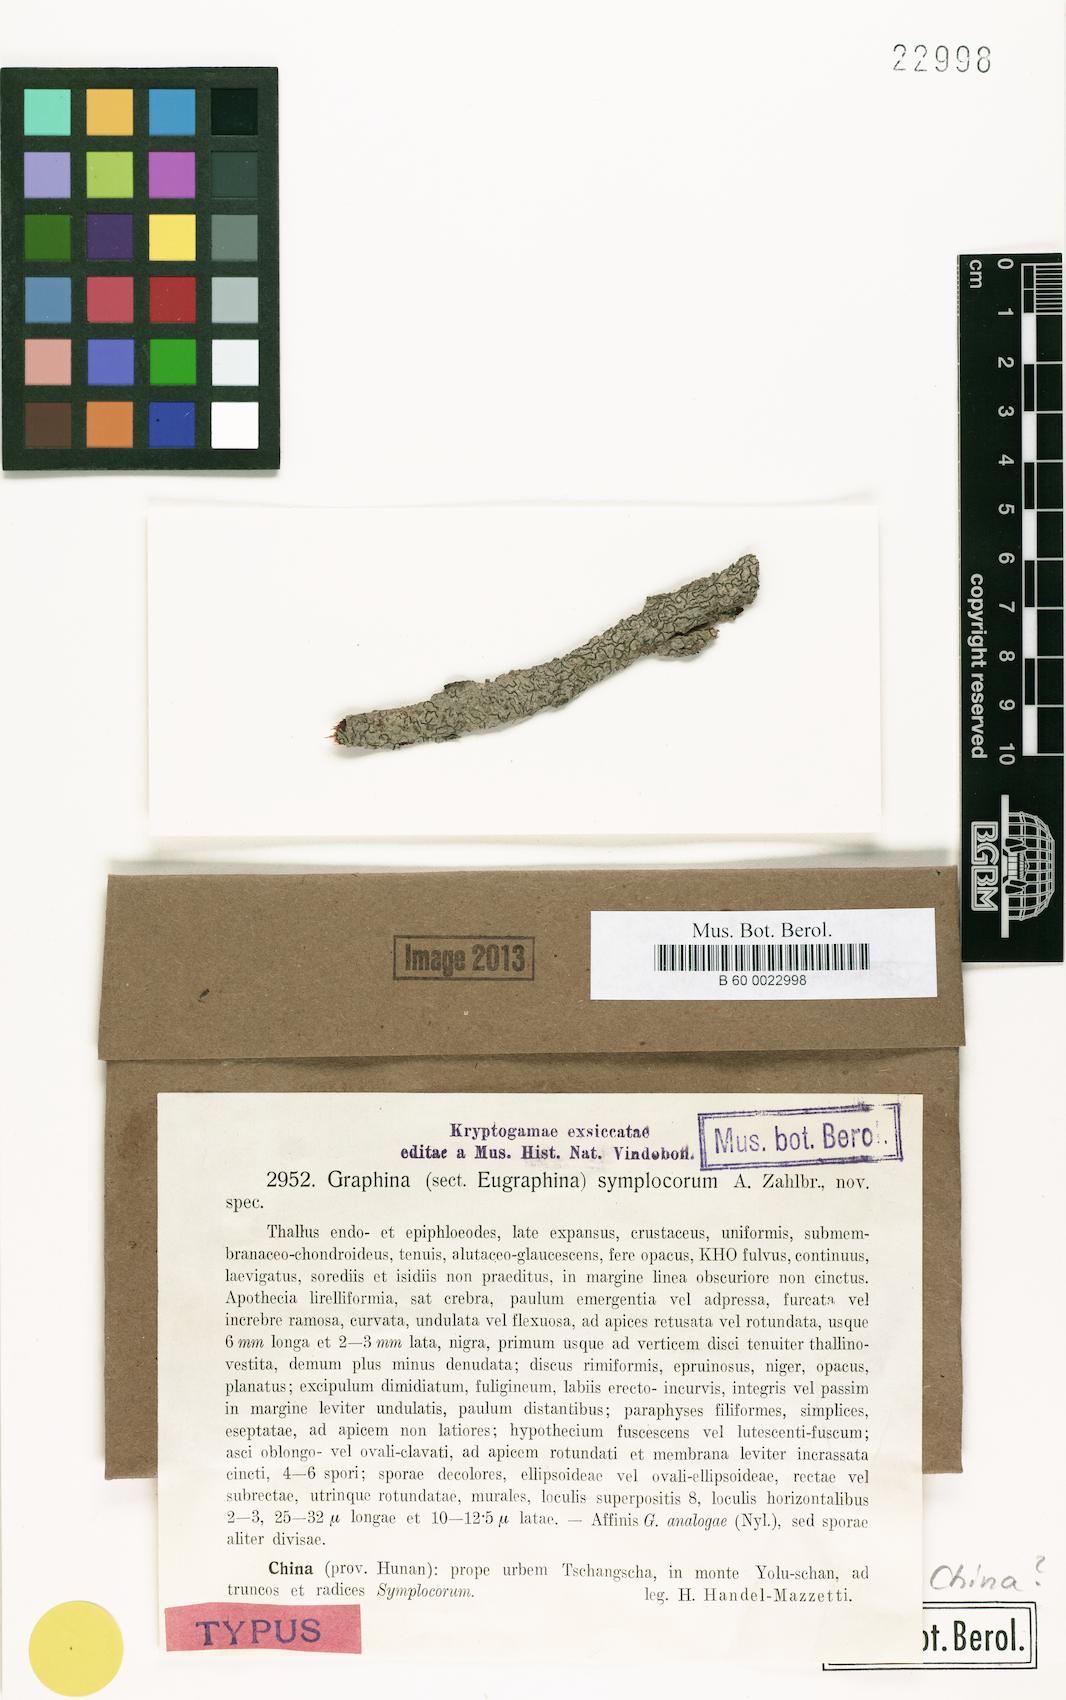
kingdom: Fungi
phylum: Ascomycota
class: Lecanoromycetes
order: Ostropales
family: Graphidaceae
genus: Graphina
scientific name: Graphina symplocorum
